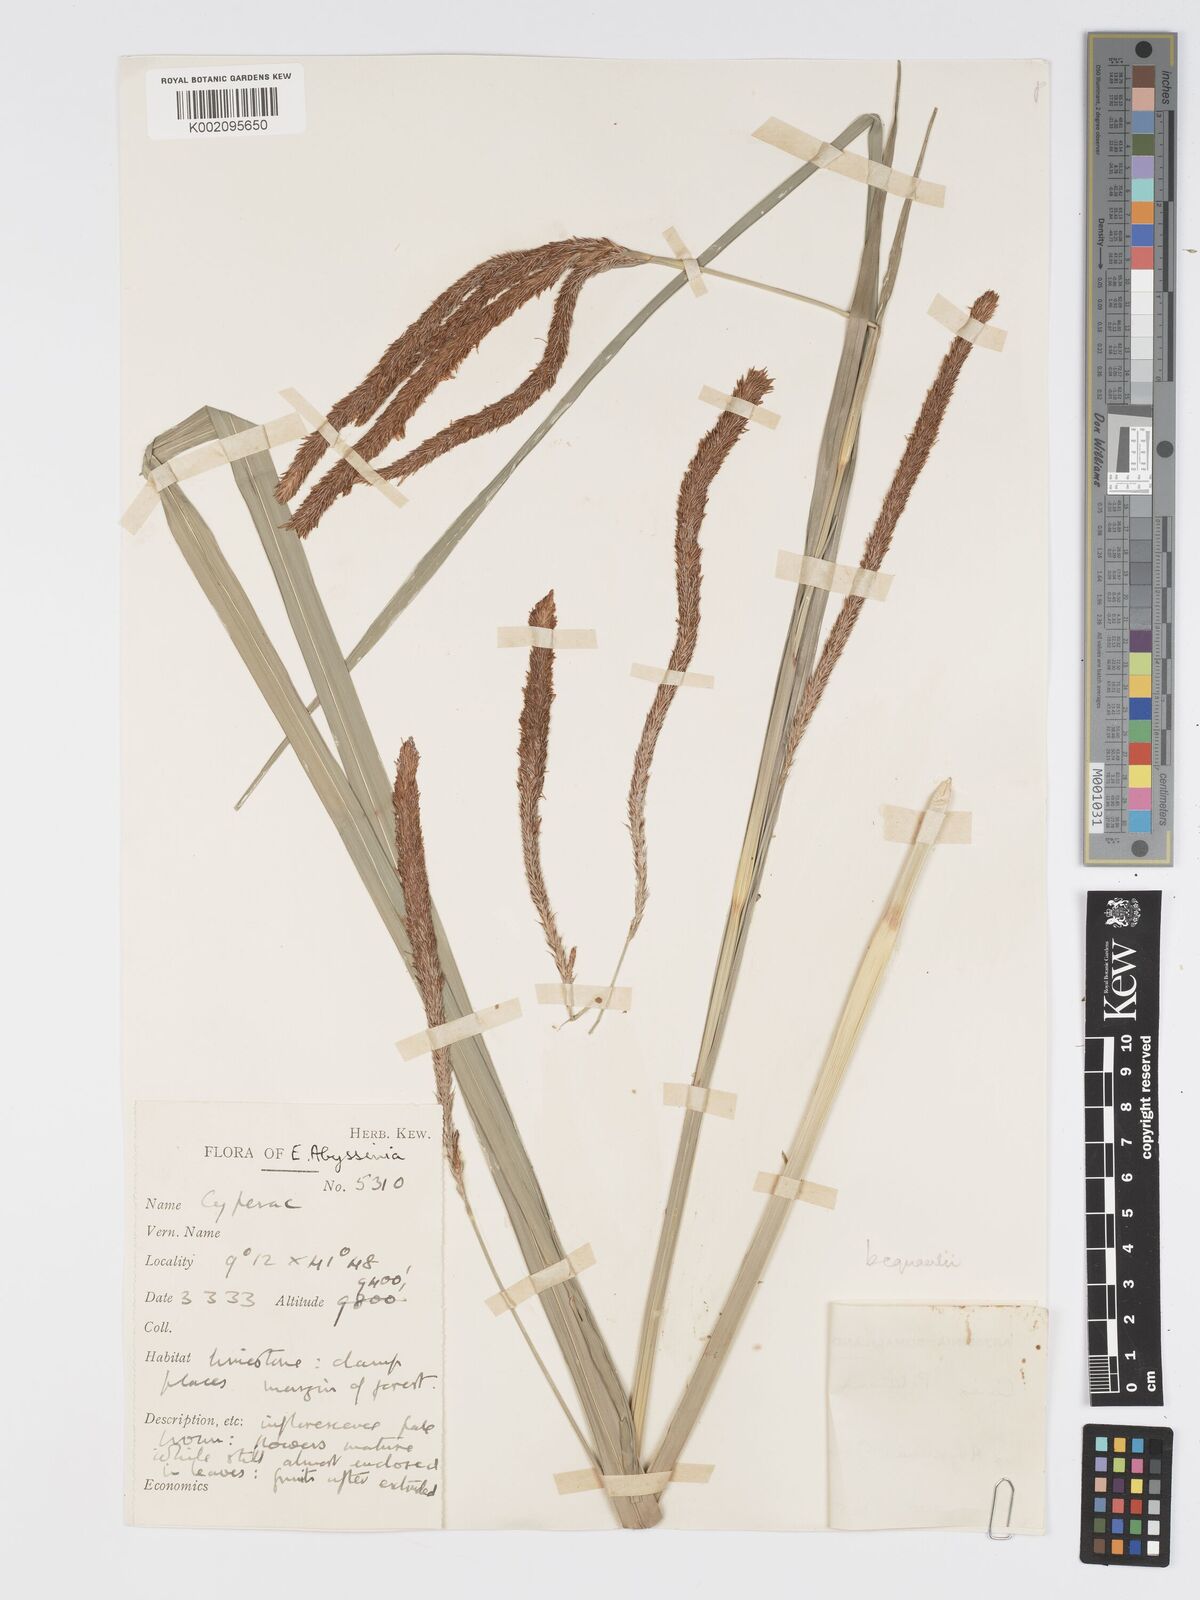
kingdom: Plantae
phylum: Tracheophyta
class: Liliopsida
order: Poales
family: Cyperaceae
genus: Carex
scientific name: Carex bequaertii
